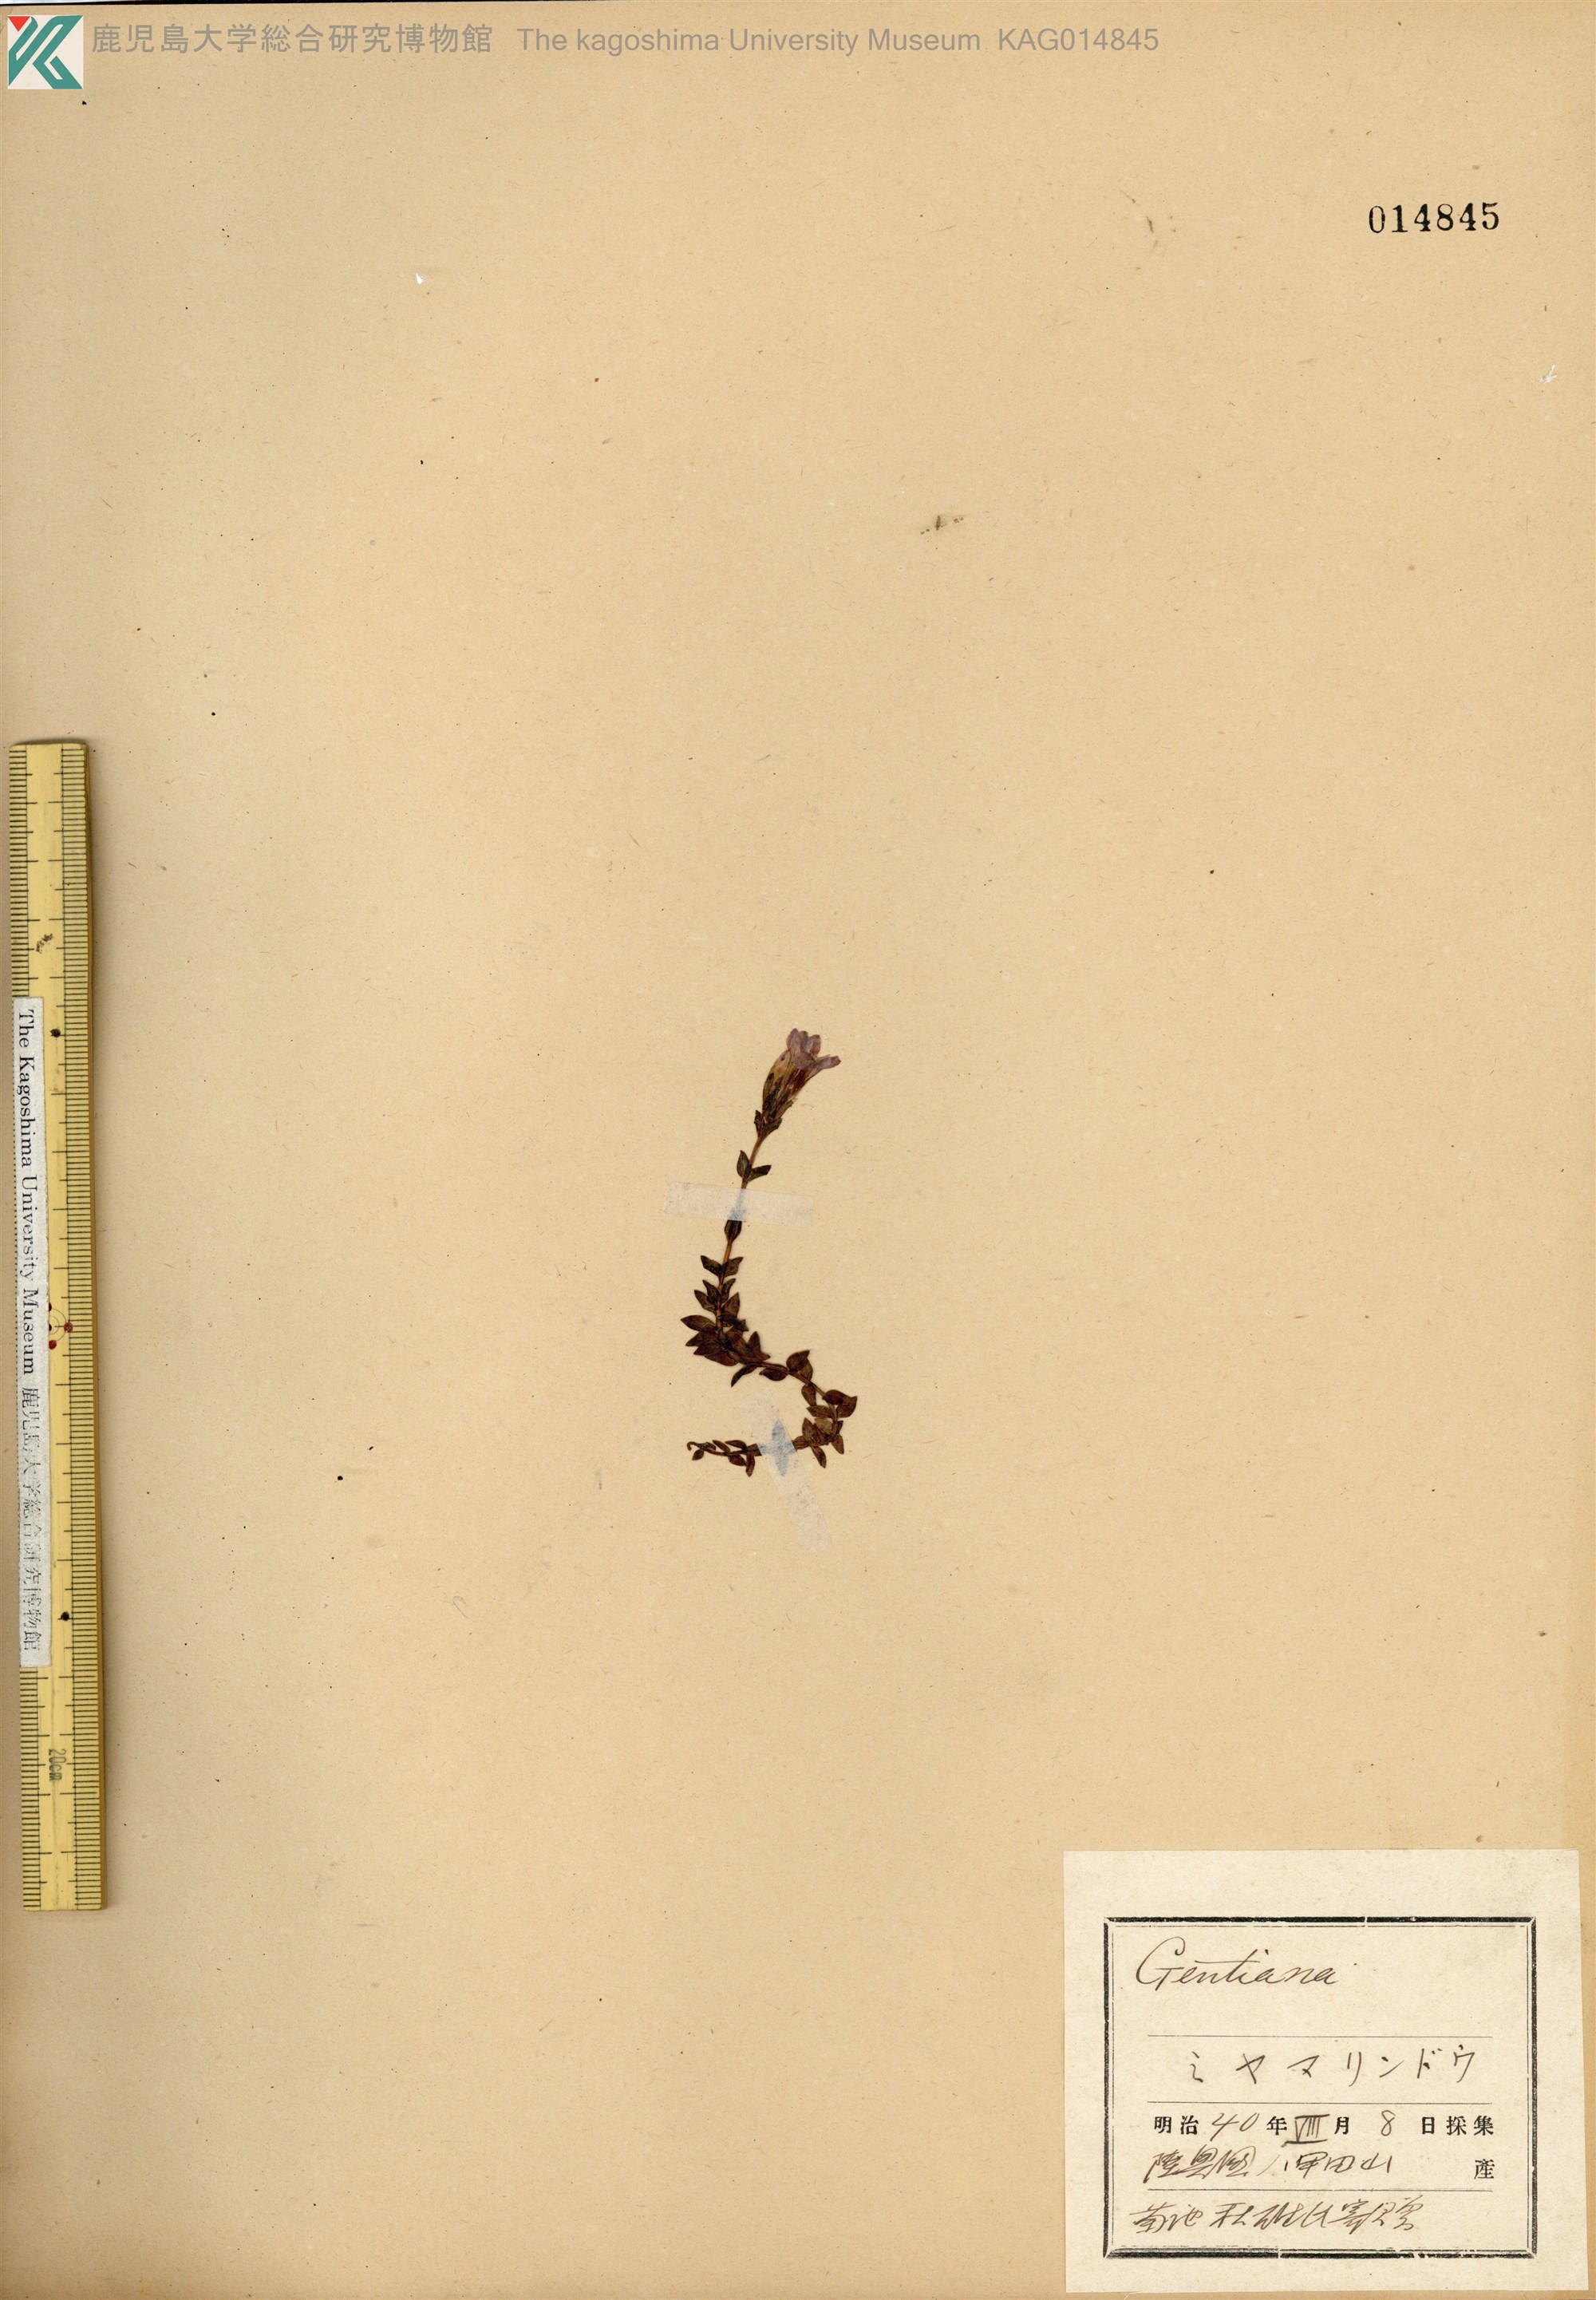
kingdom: Plantae
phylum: Tracheophyta
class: Magnoliopsida
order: Gentianales
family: Gentianaceae
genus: Gentiana
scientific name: Gentiana nipponica
